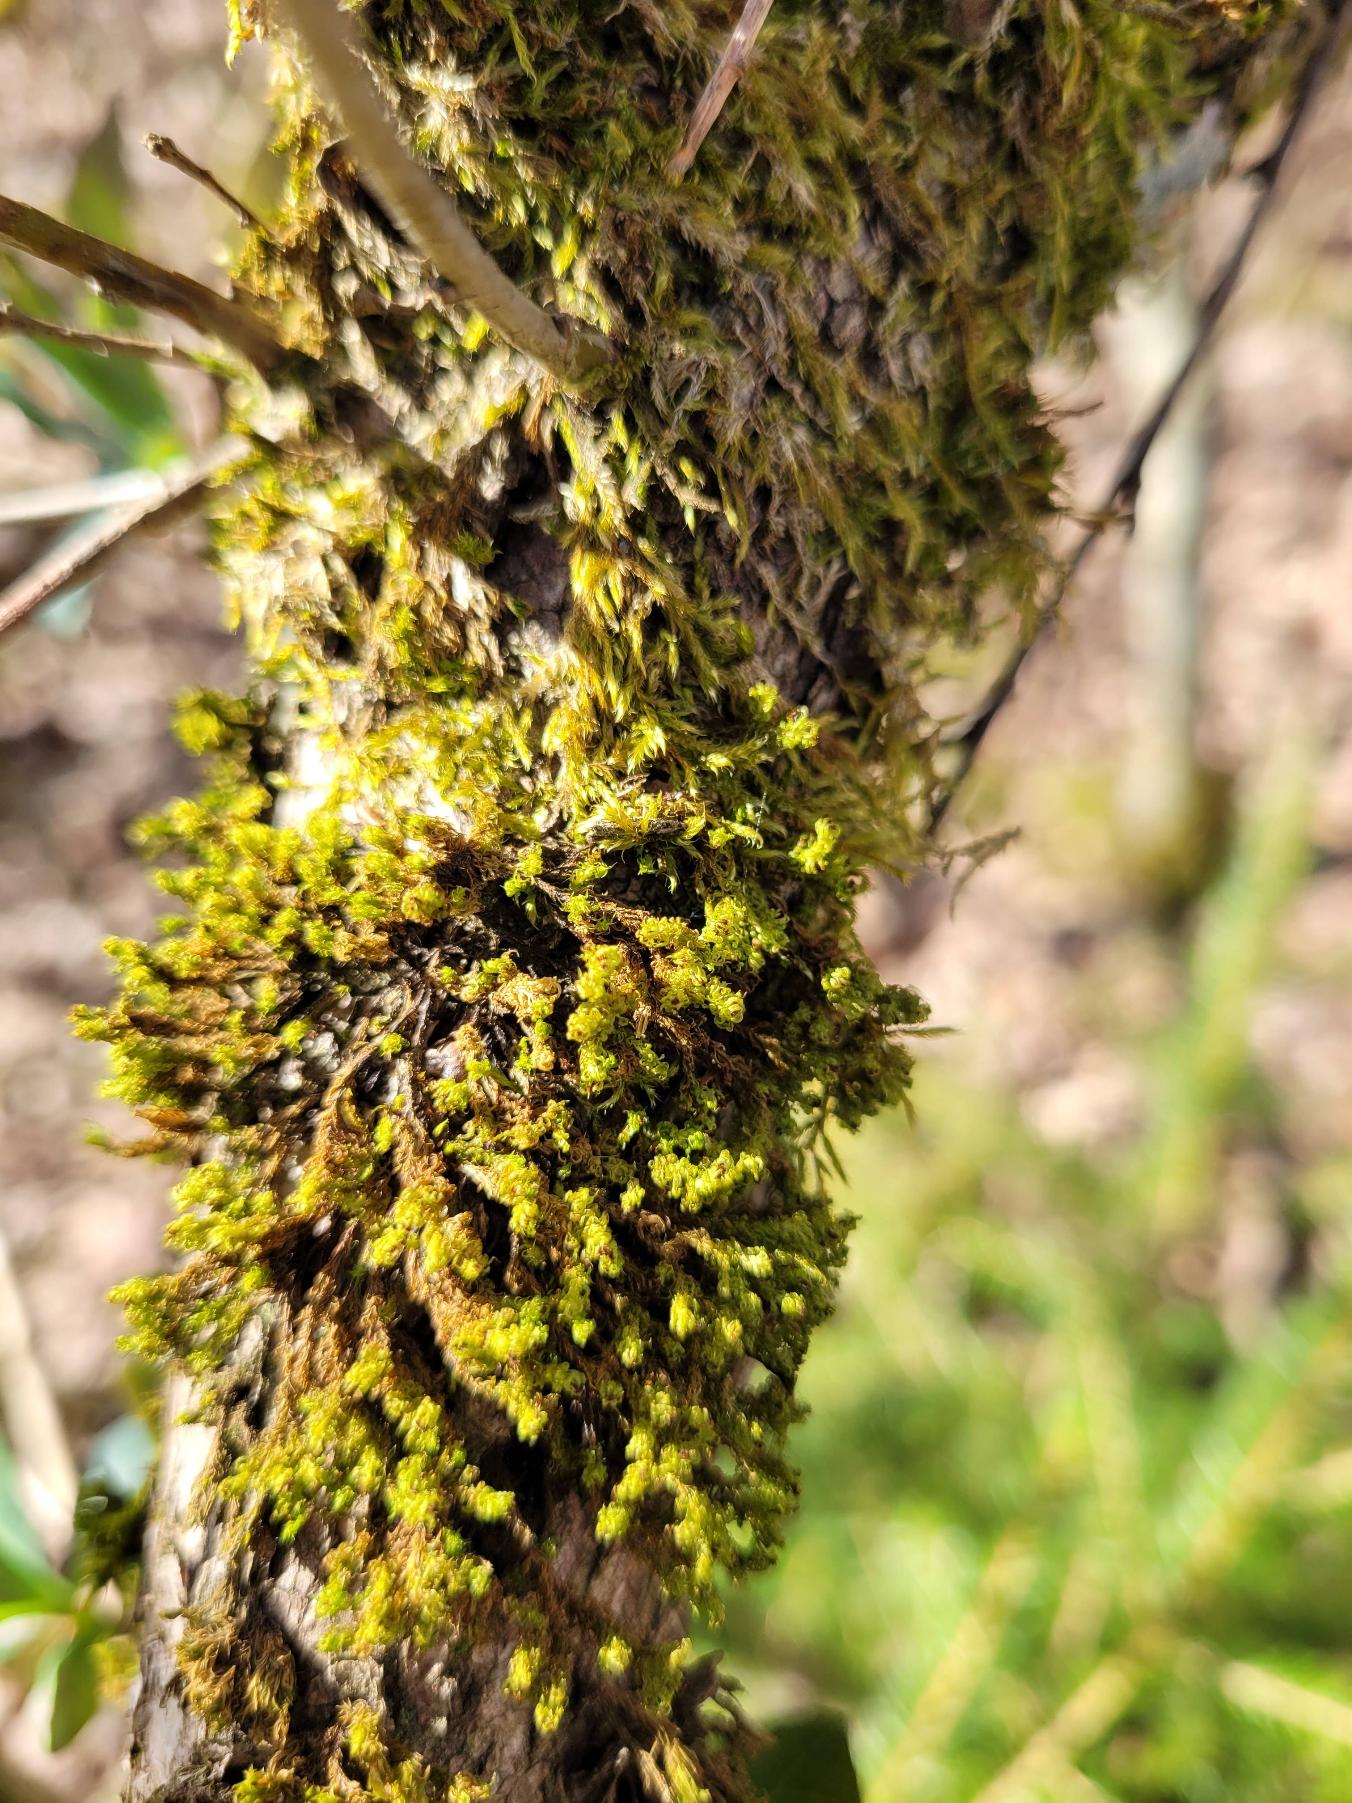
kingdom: Plantae
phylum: Bryophyta
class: Bryopsida
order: Orthotrichales
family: Orthotrichaceae
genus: Plenogemma
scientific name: Plenogemma phyllantha
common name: Stor låddenhætte
